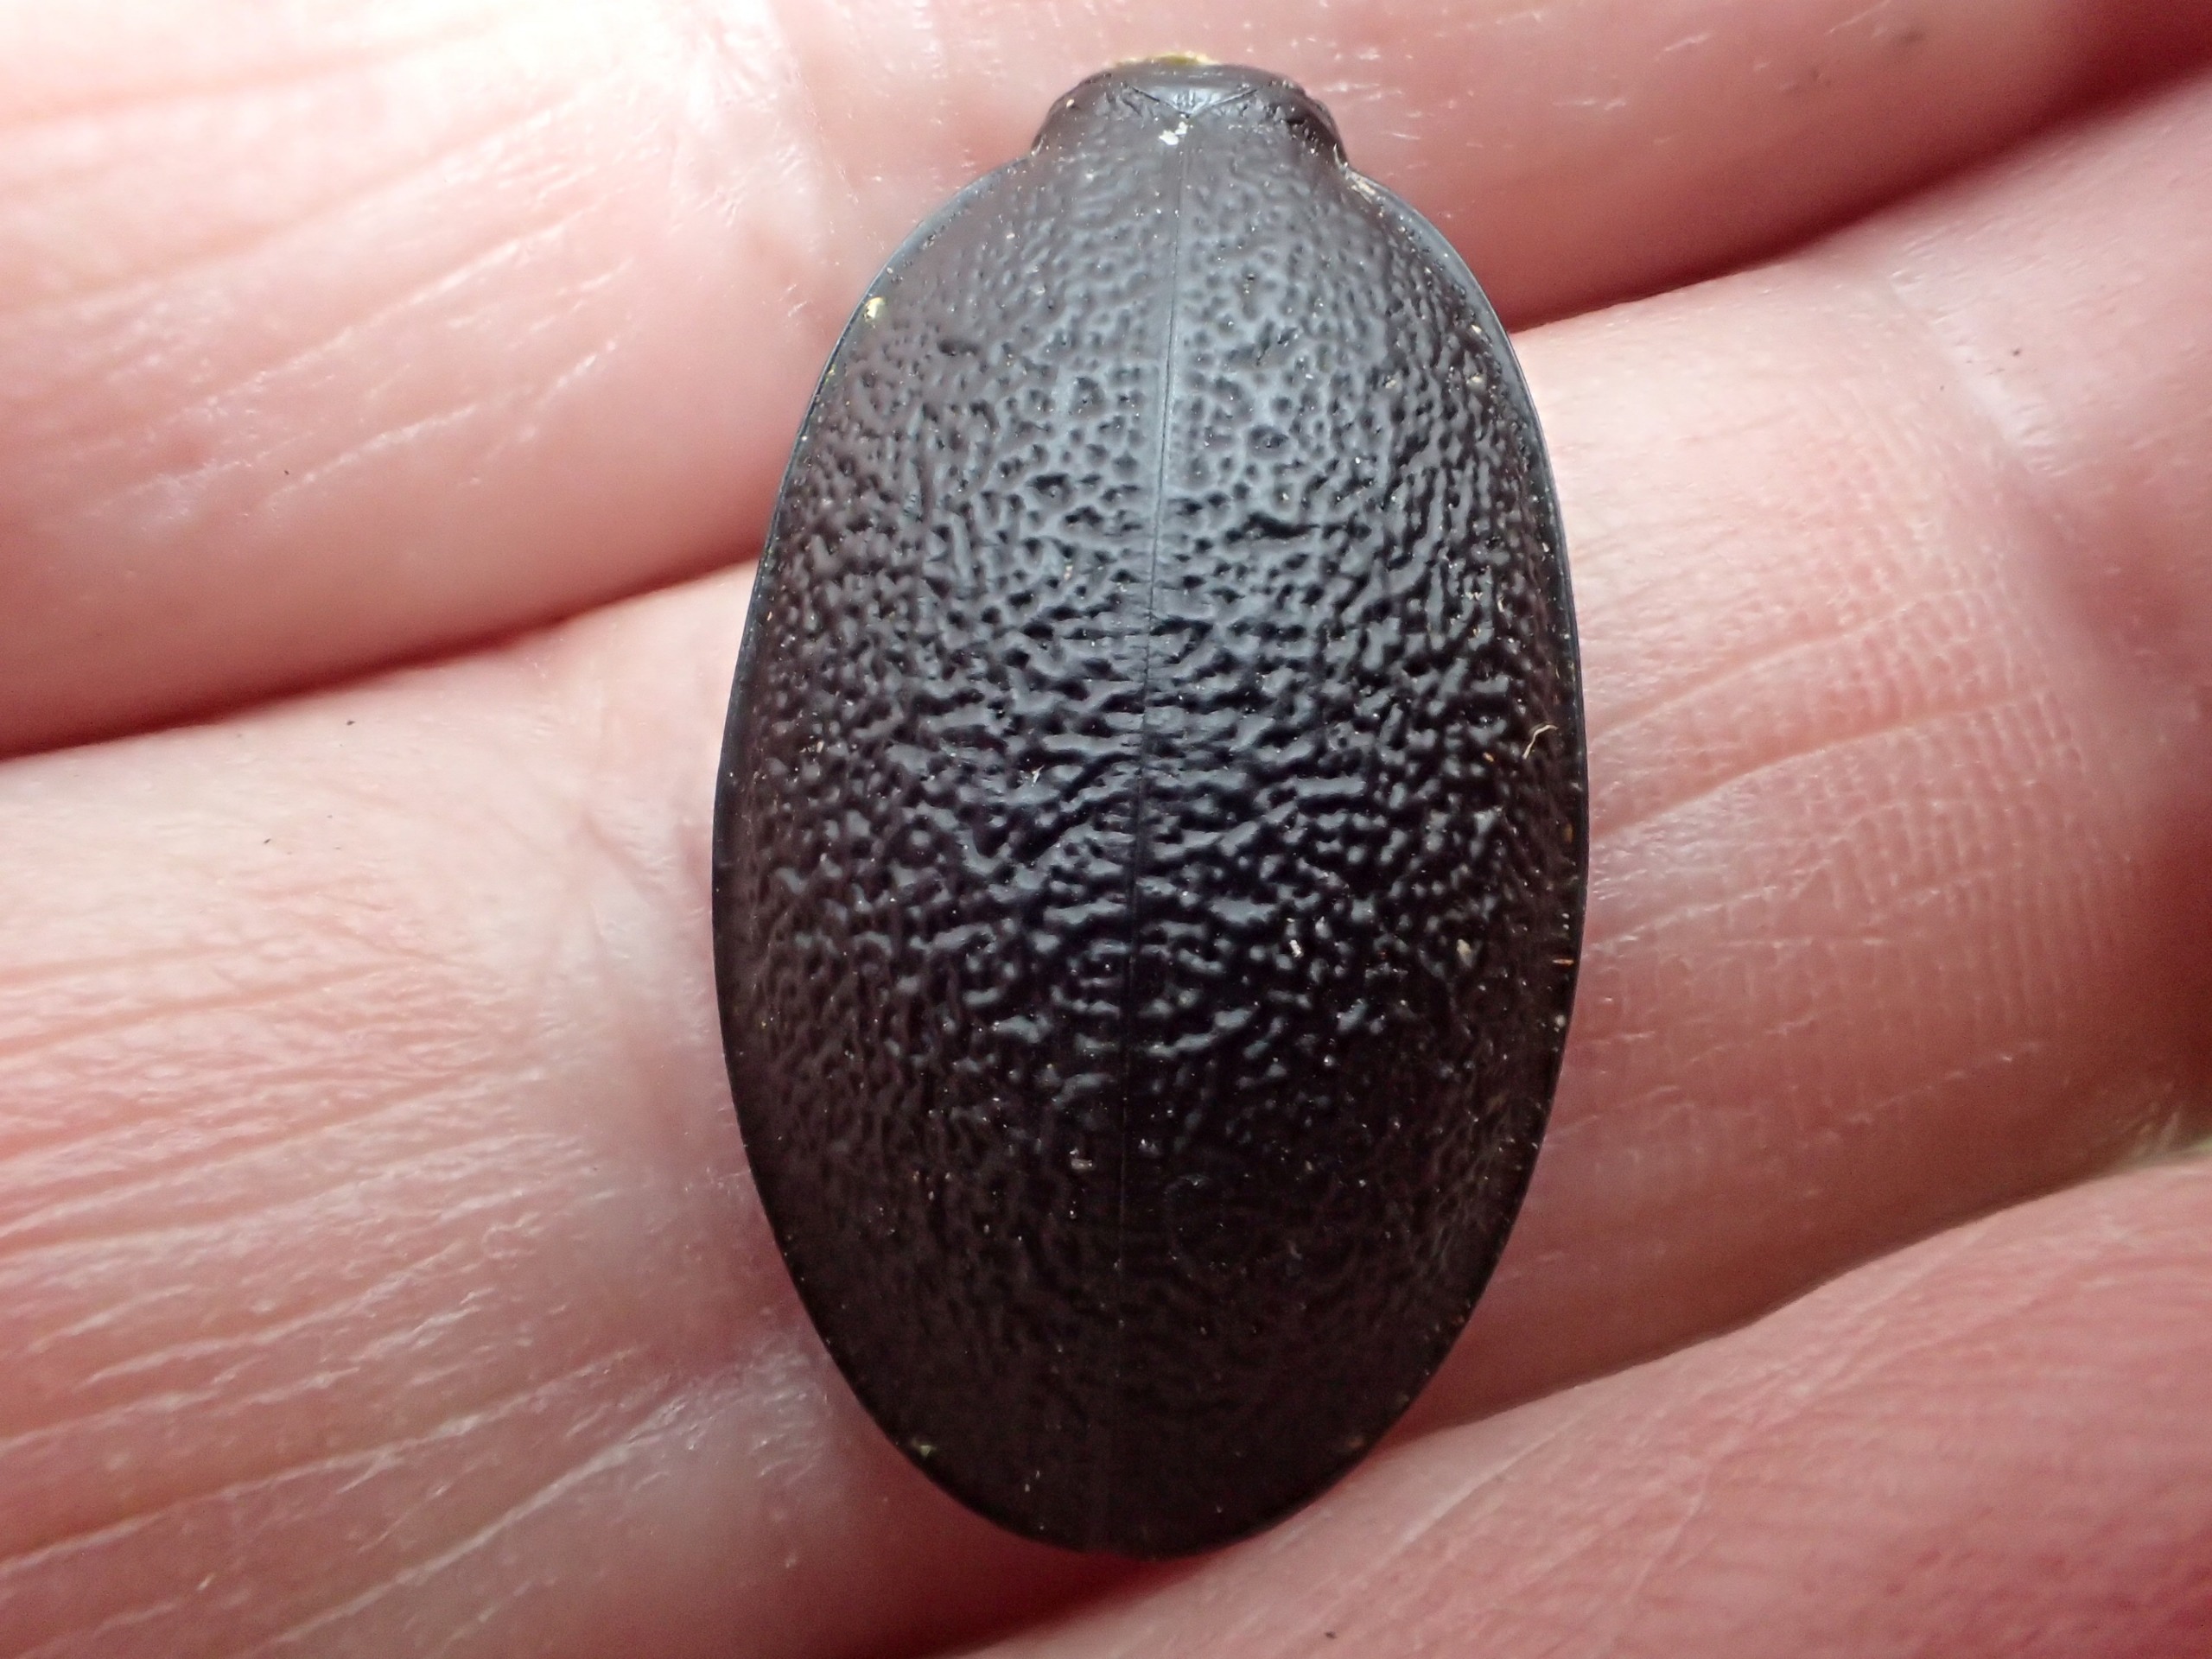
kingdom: Animalia
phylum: Arthropoda
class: Insecta
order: Coleoptera
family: Carabidae
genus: Carabus
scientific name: Carabus coriaceus
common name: Læderløber
